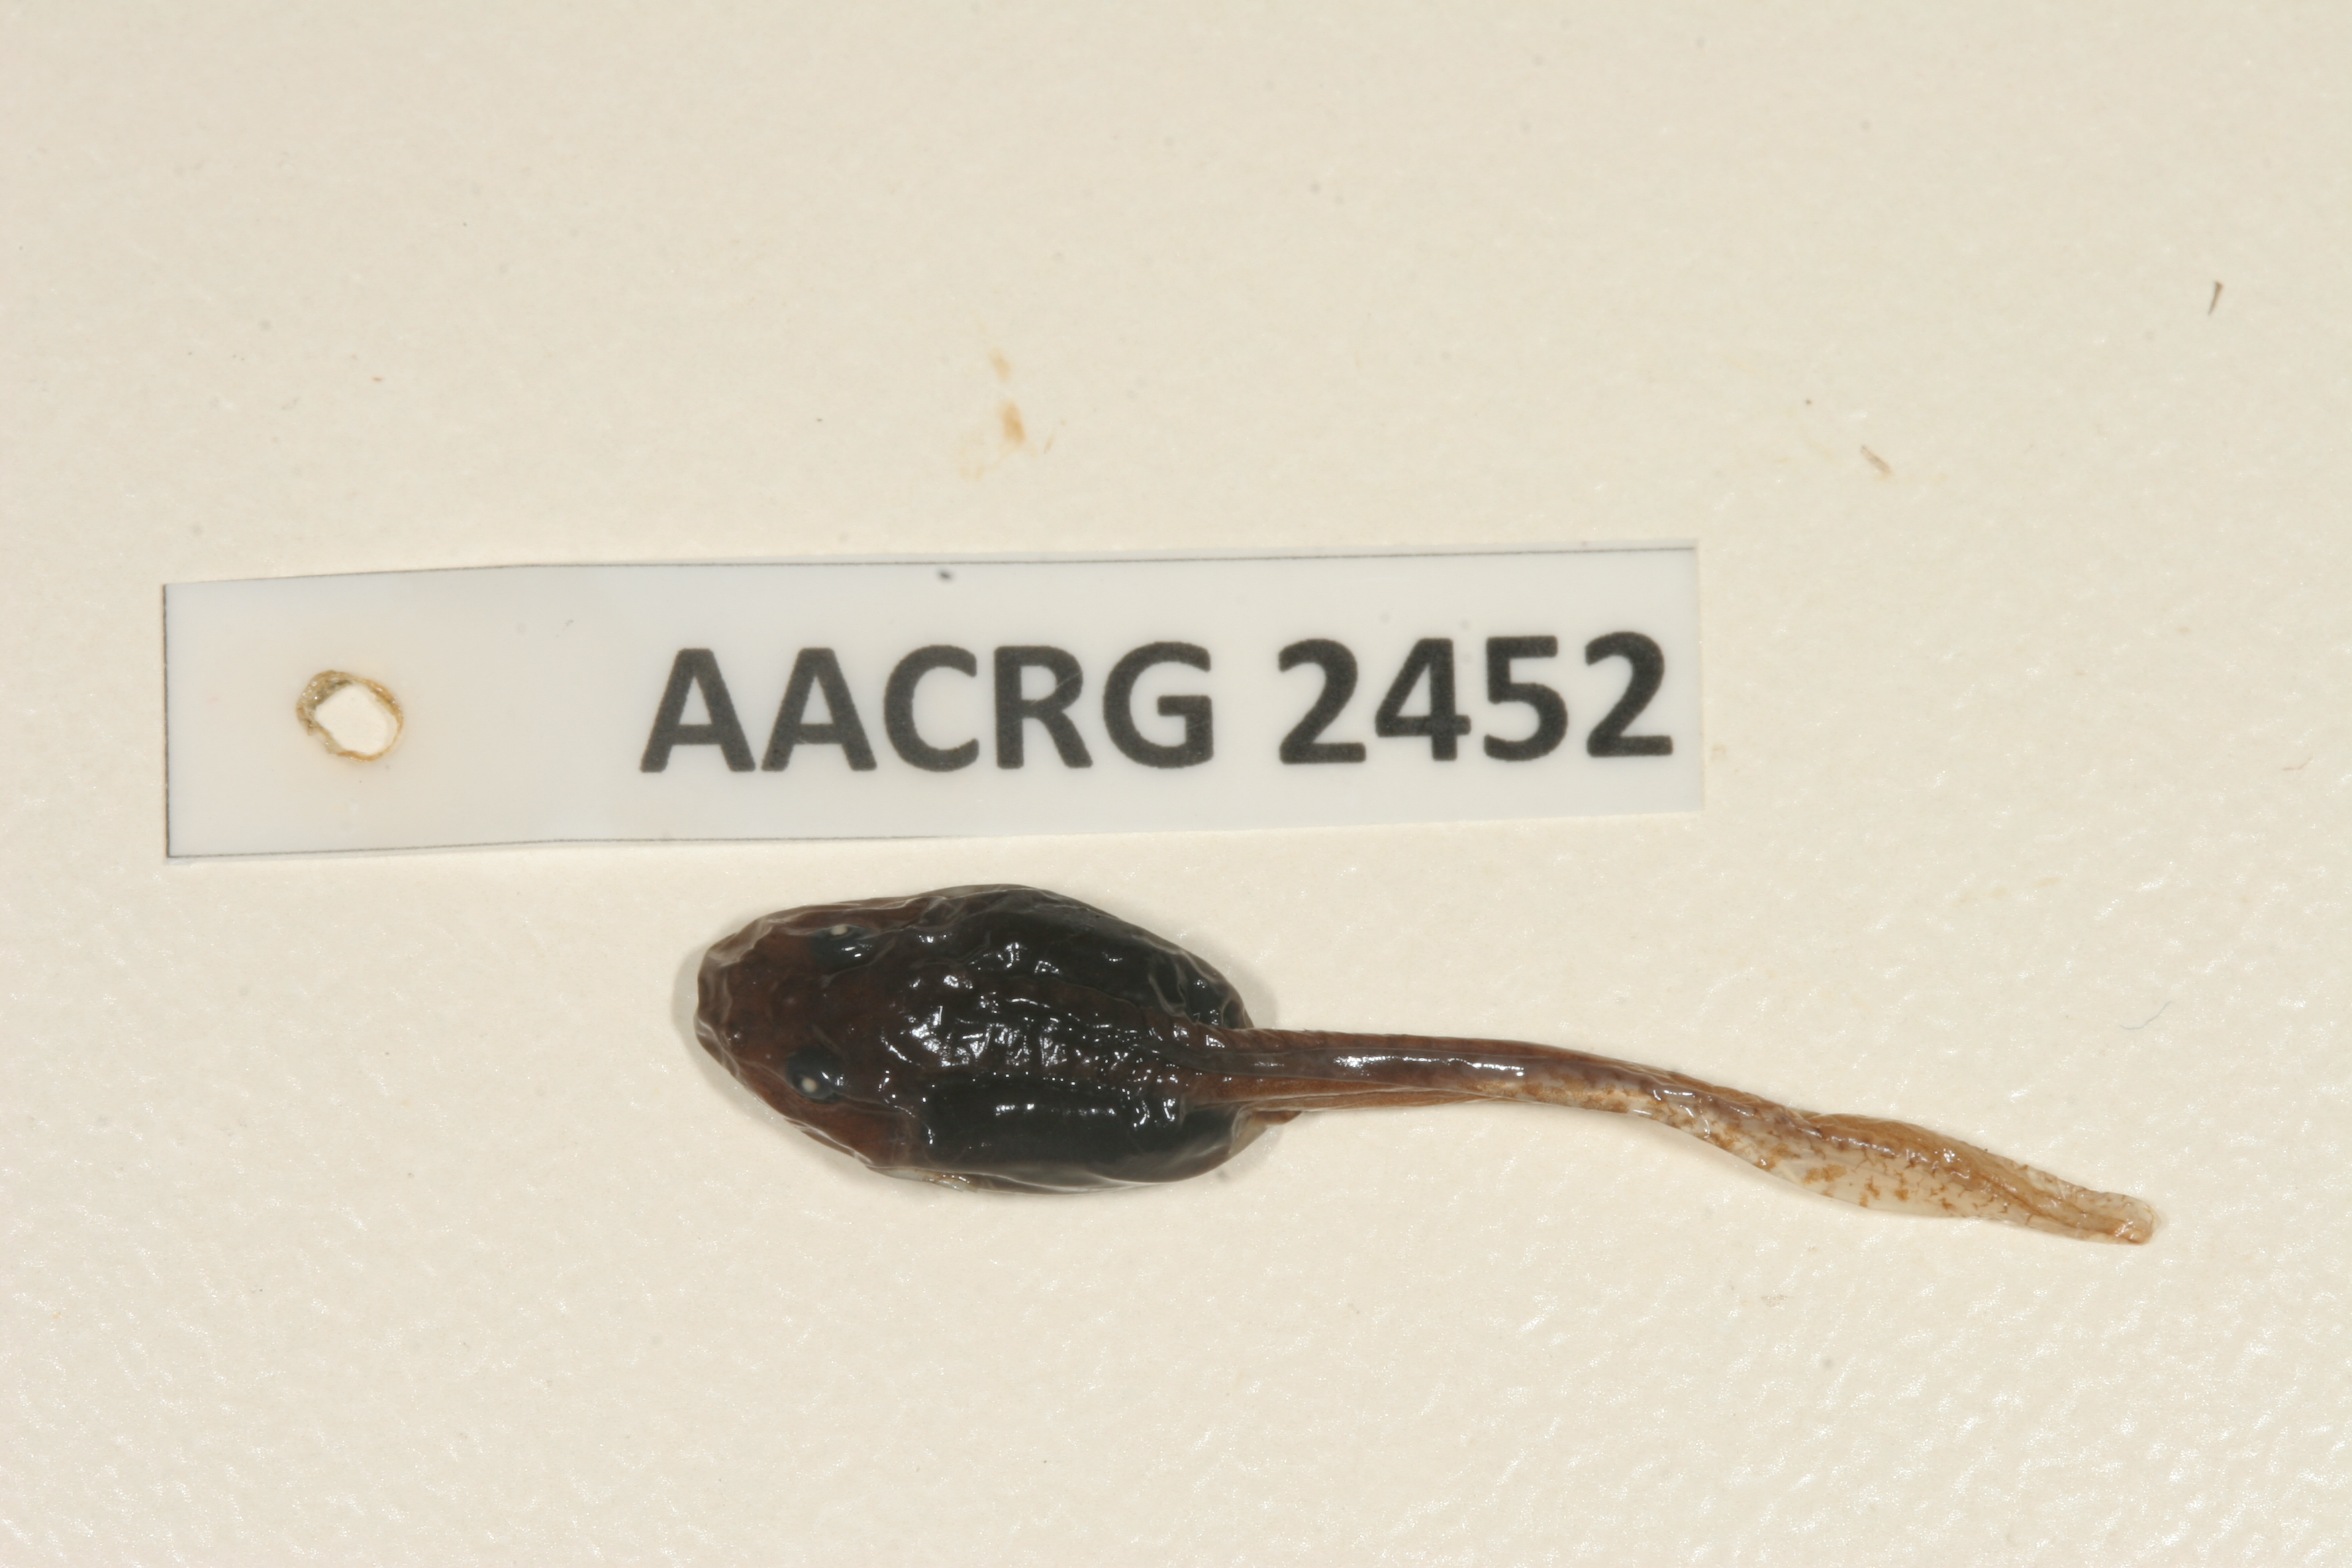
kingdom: Animalia
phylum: Chordata
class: Amphibia
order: Anura
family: Pyxicephalidae
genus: Strongylopus
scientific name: Strongylopus bonaespei
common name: Banded stream frog
